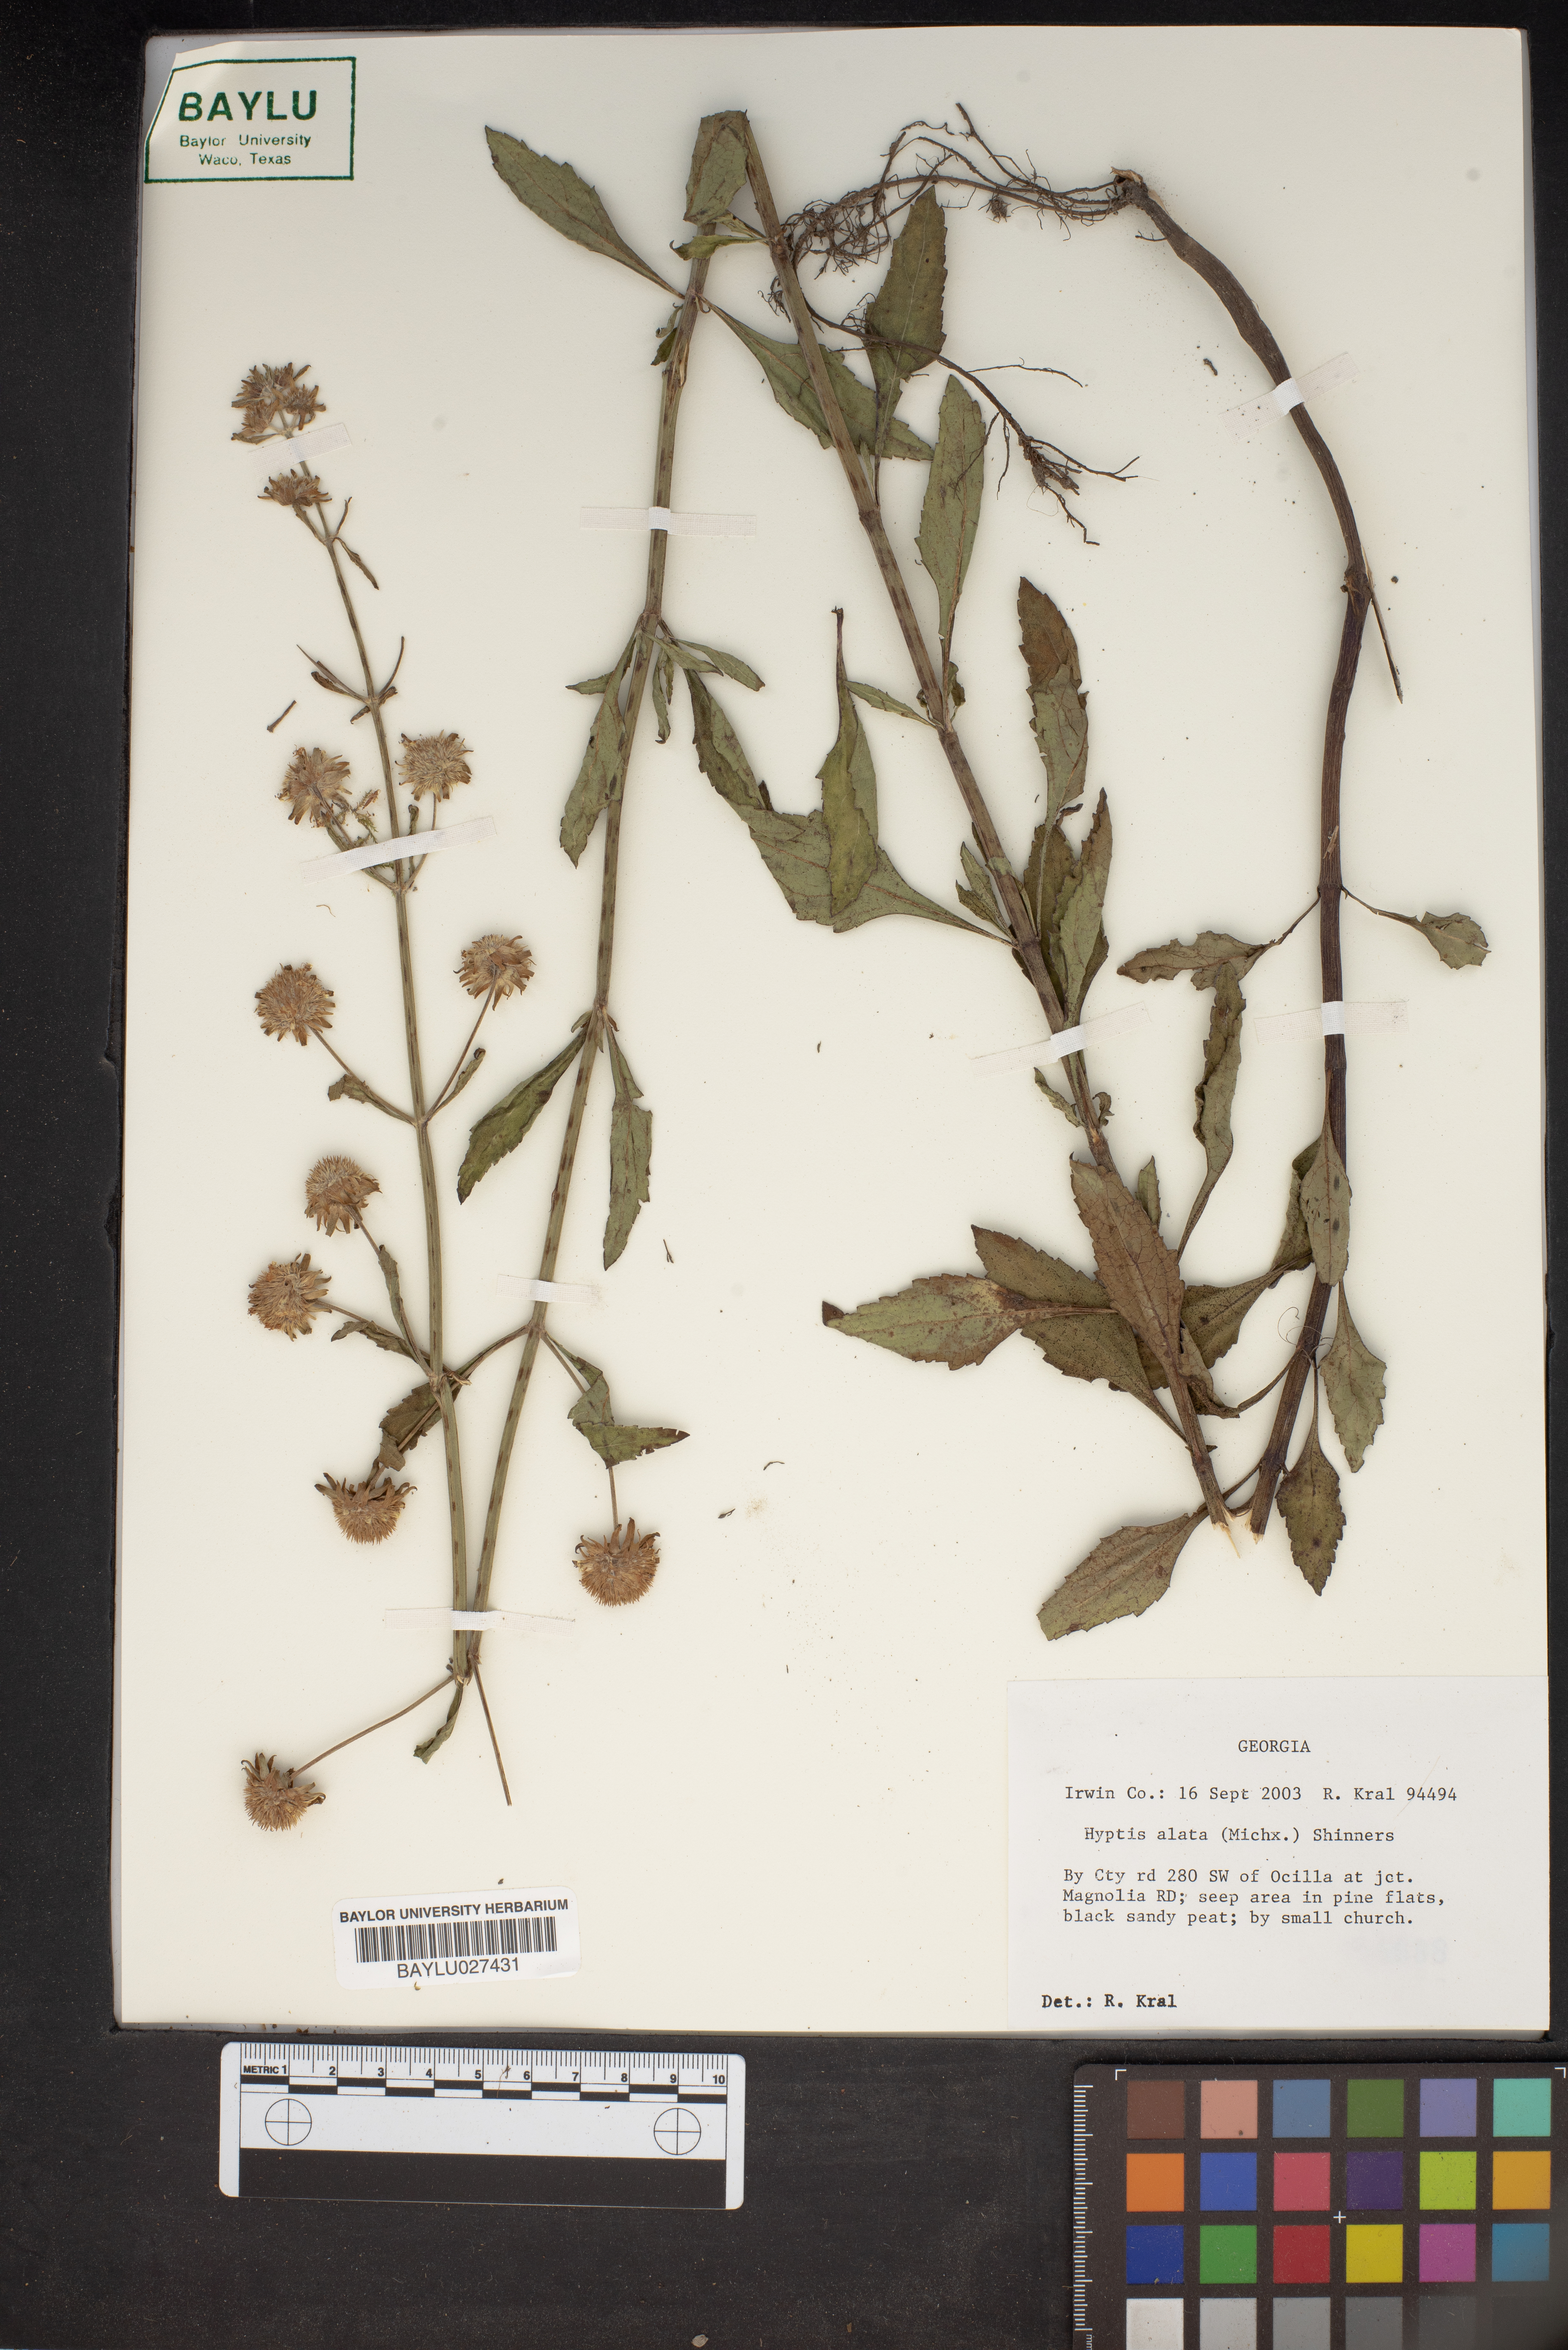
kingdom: Plantae
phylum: Tracheophyta
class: Magnoliopsida
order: Lamiales
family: Lamiaceae
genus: Hyptis
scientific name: Hyptis alata
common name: Cluster bush-mint
